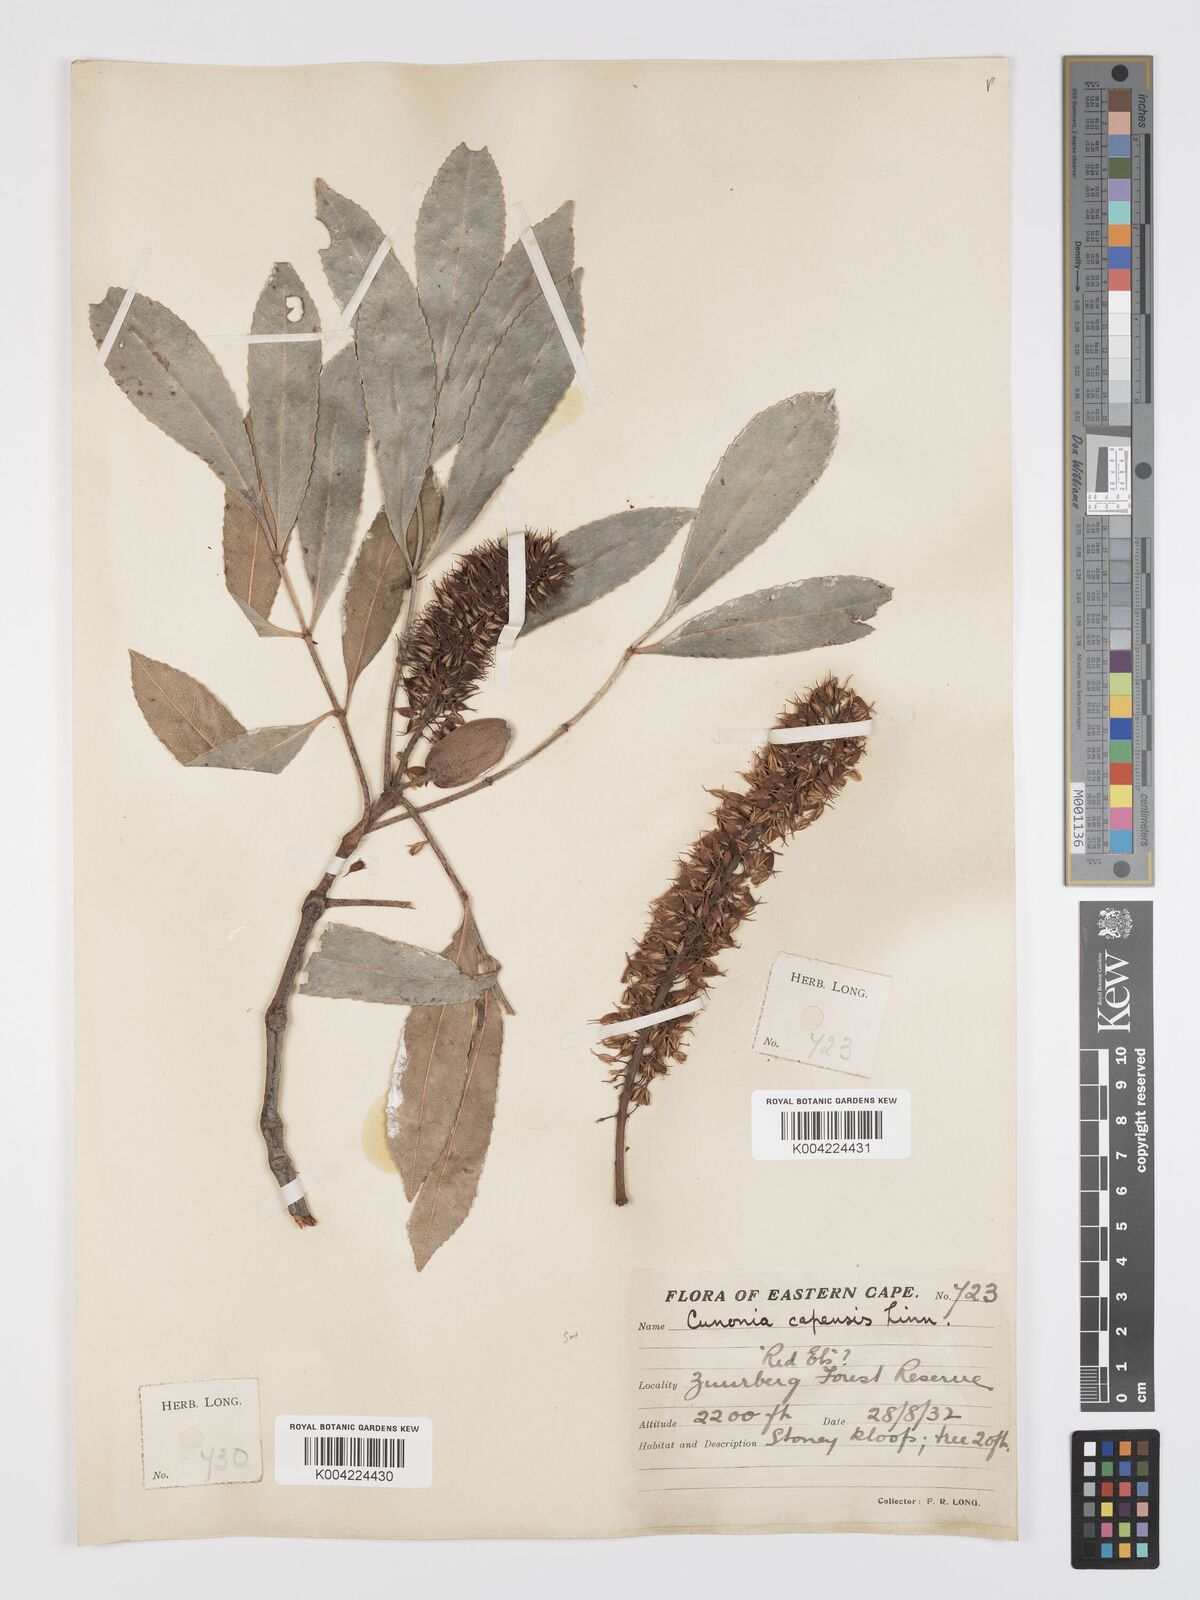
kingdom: Plantae
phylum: Tracheophyta
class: Magnoliopsida
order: Oxalidales
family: Cunoniaceae
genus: Cunonia
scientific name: Cunonia capensis
